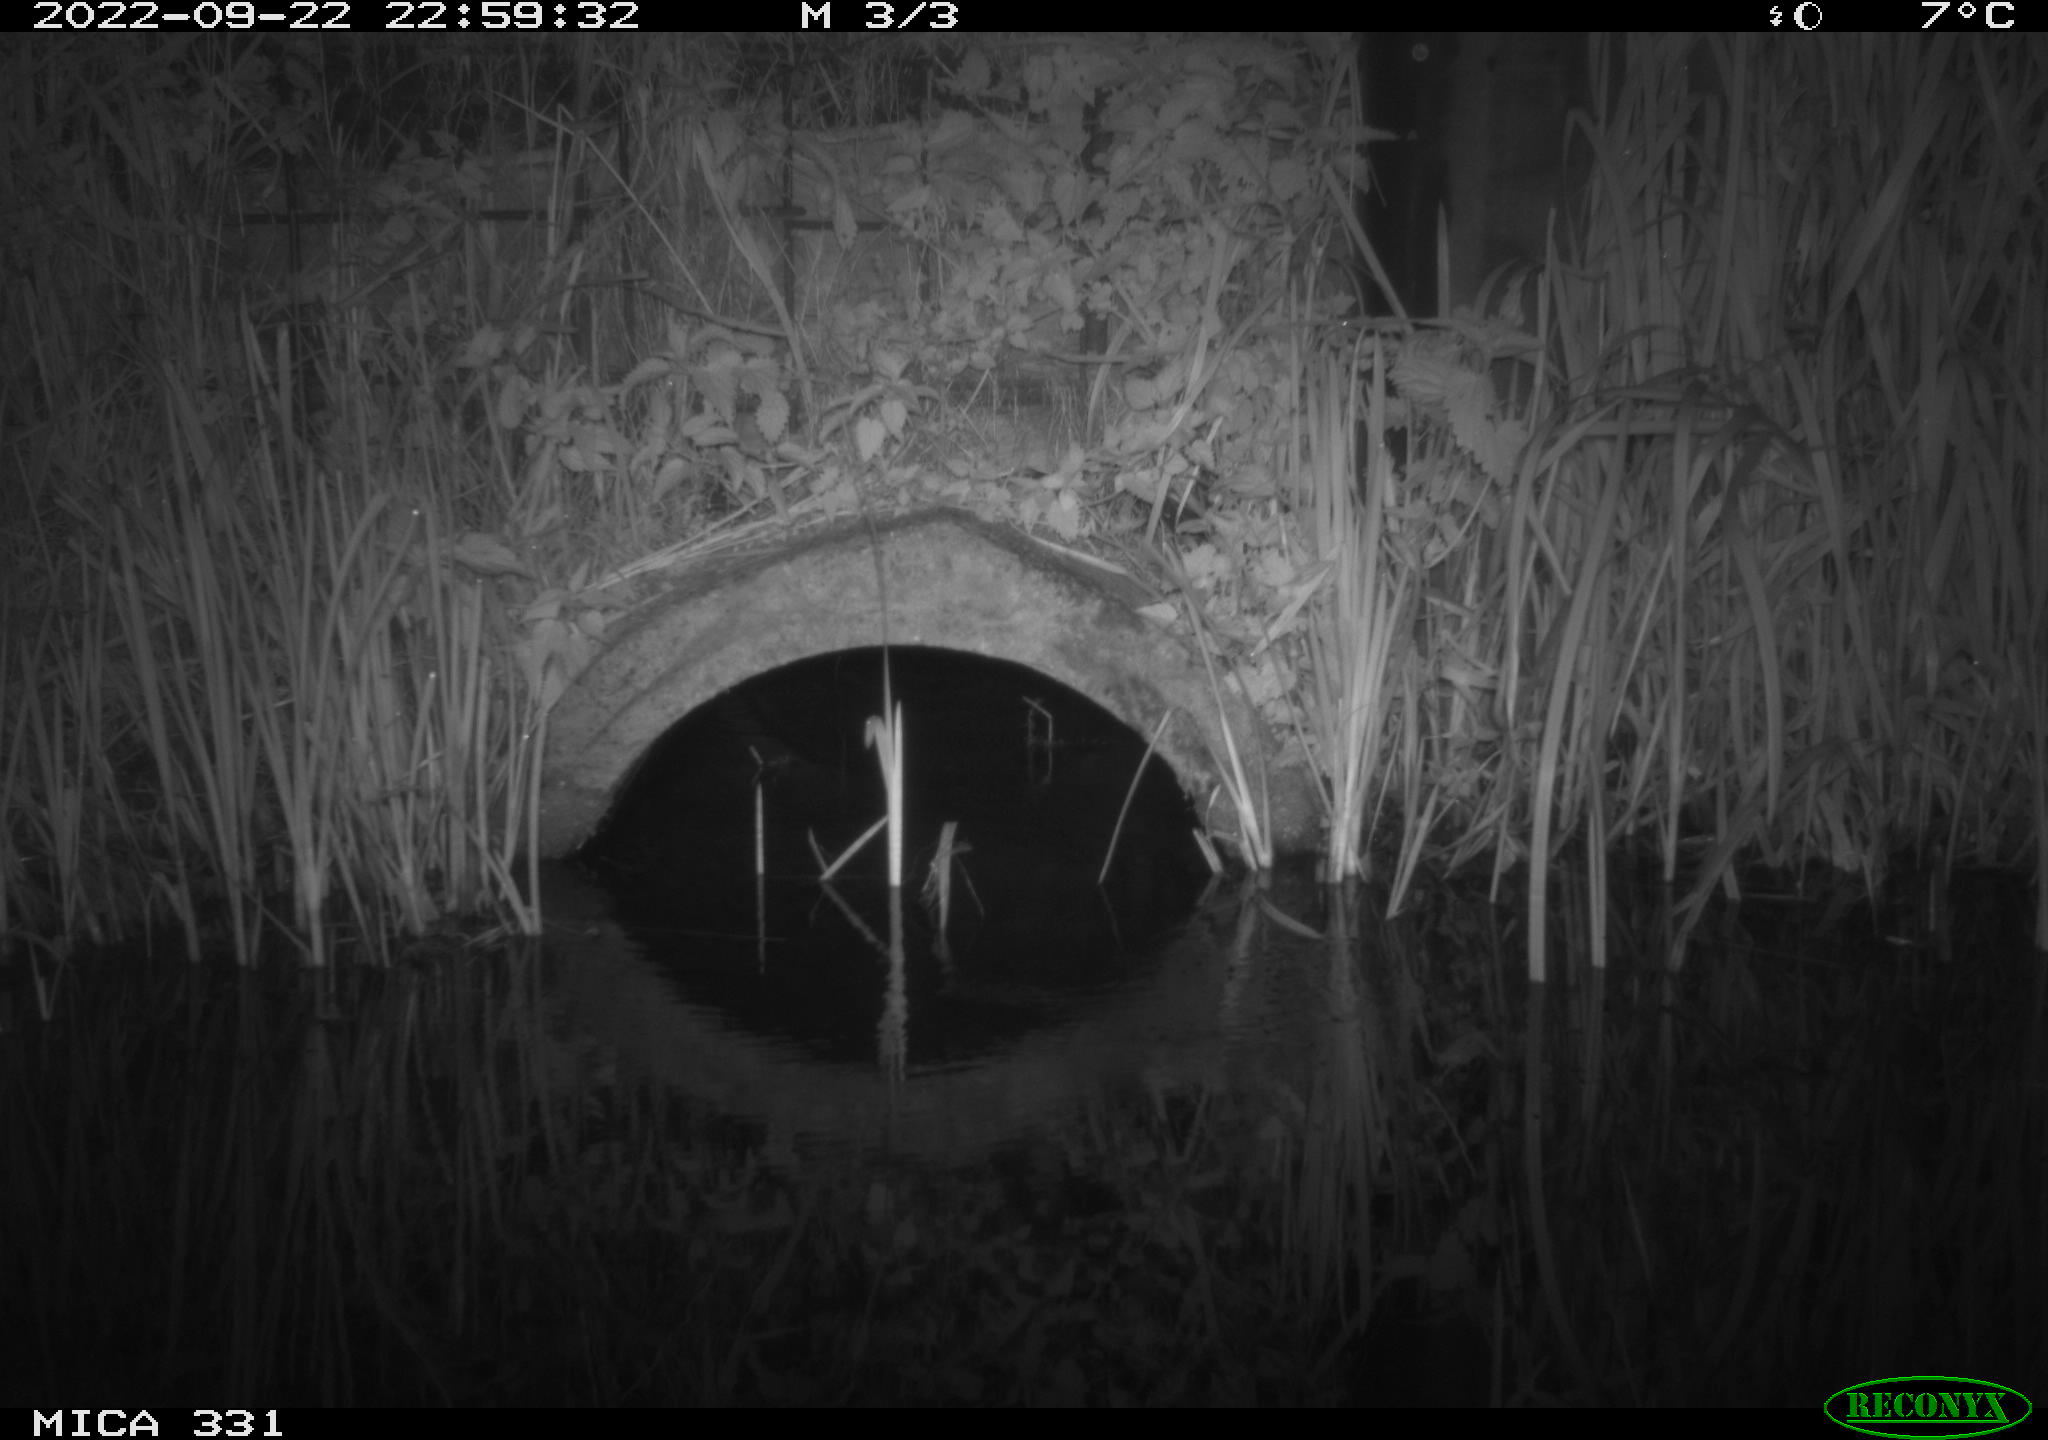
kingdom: Animalia
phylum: Chordata
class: Mammalia
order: Rodentia
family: Muridae
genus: Rattus
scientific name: Rattus norvegicus
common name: Brown rat
